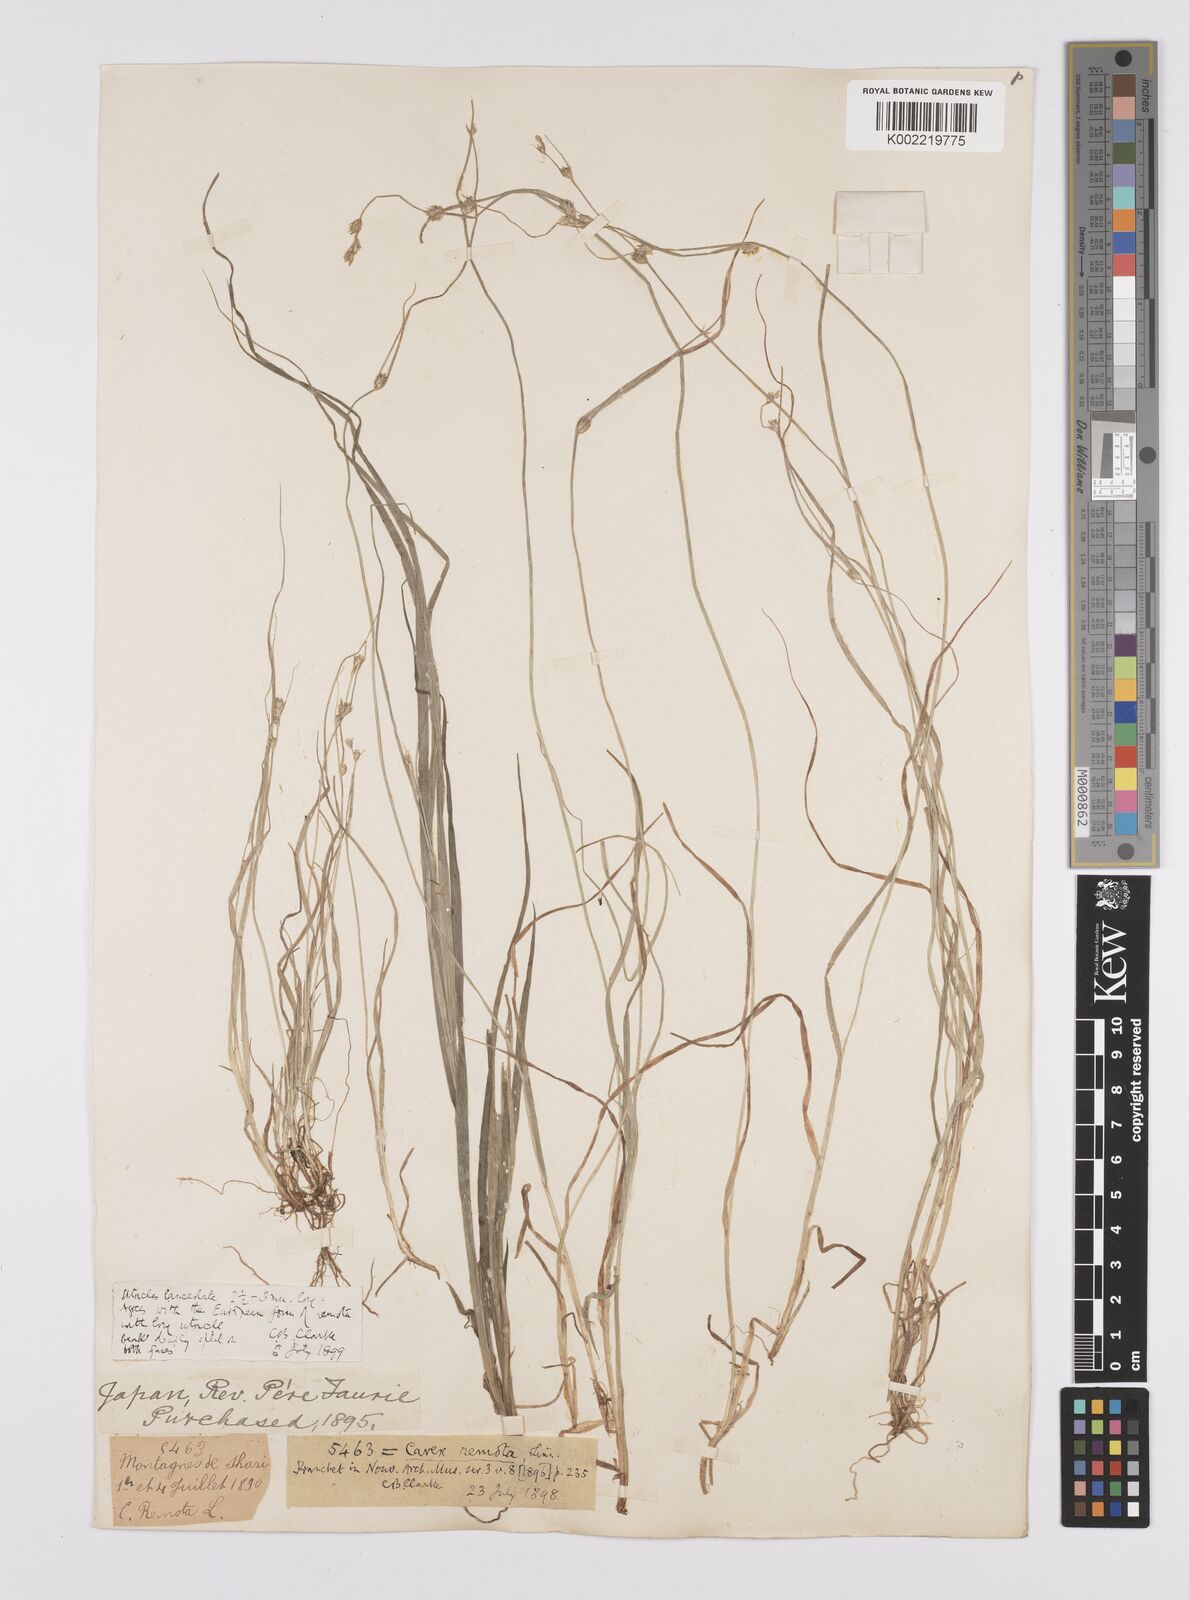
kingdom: Plantae
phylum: Tracheophyta
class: Liliopsida
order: Poales
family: Cyperaceae
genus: Carex
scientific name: Carex remota
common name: Remote sedge
